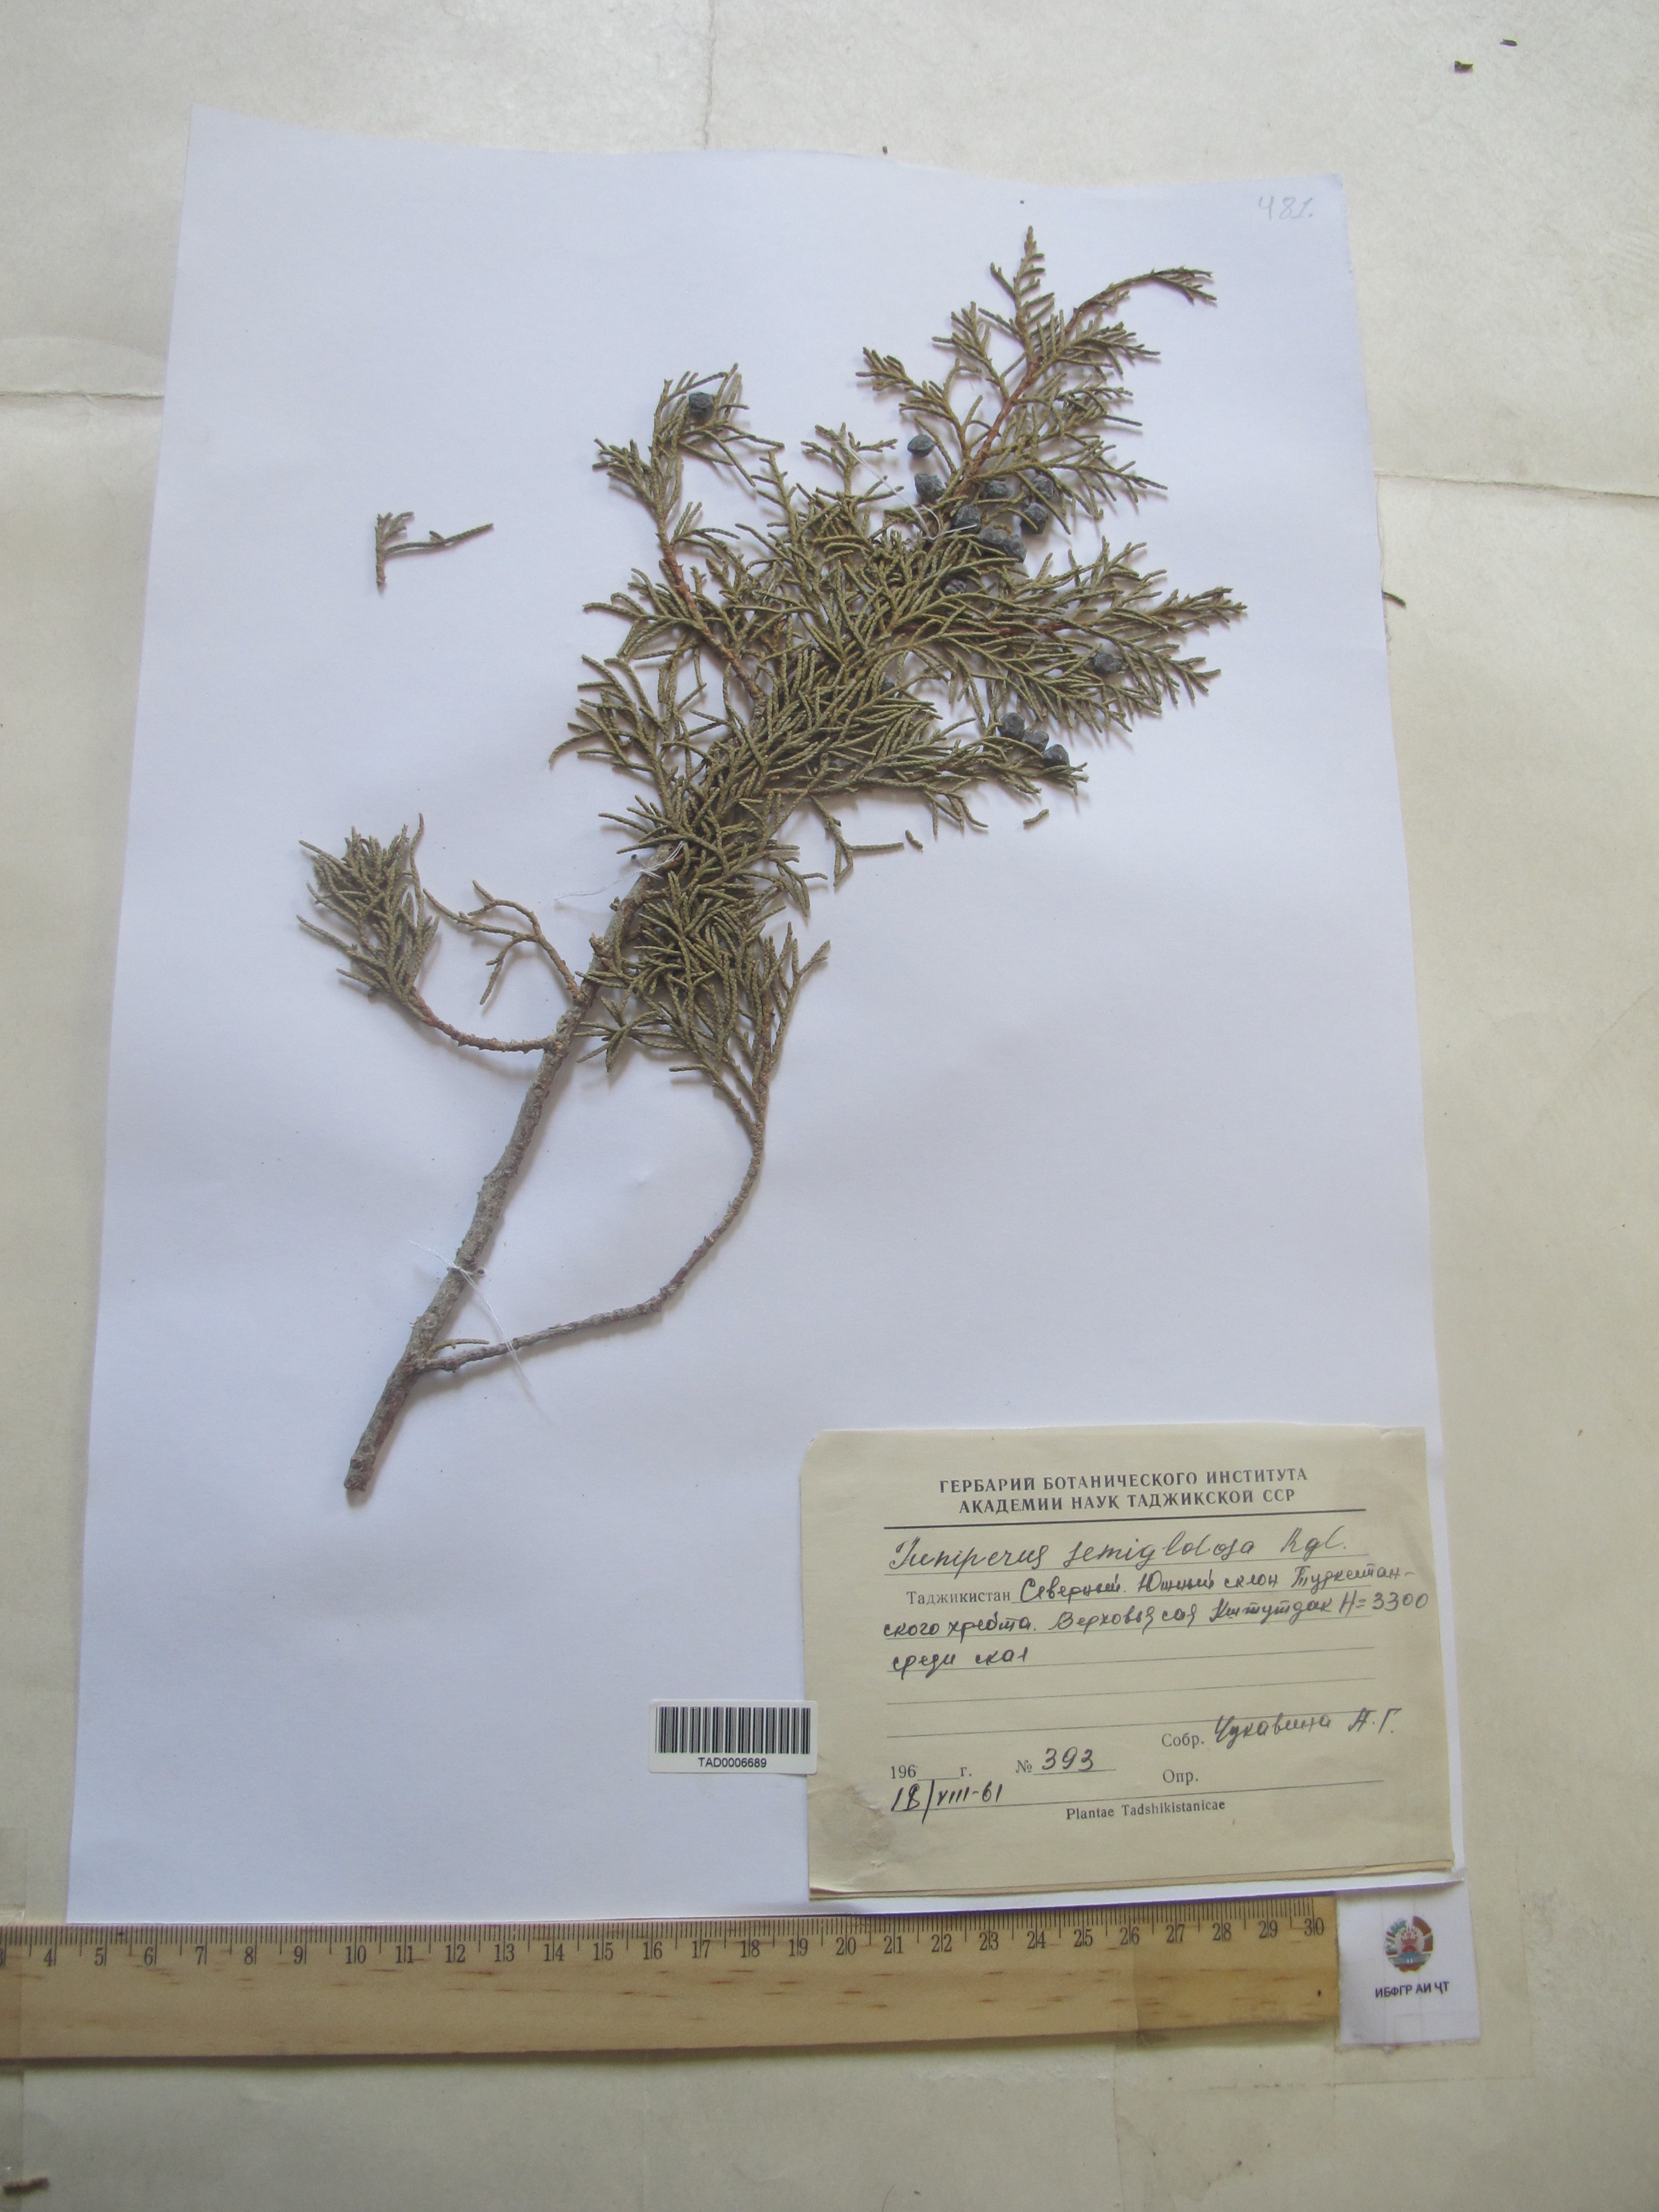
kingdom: Plantae
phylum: Tracheophyta
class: Pinopsida
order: Pinales
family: Cupressaceae
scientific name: Cupressaceae
